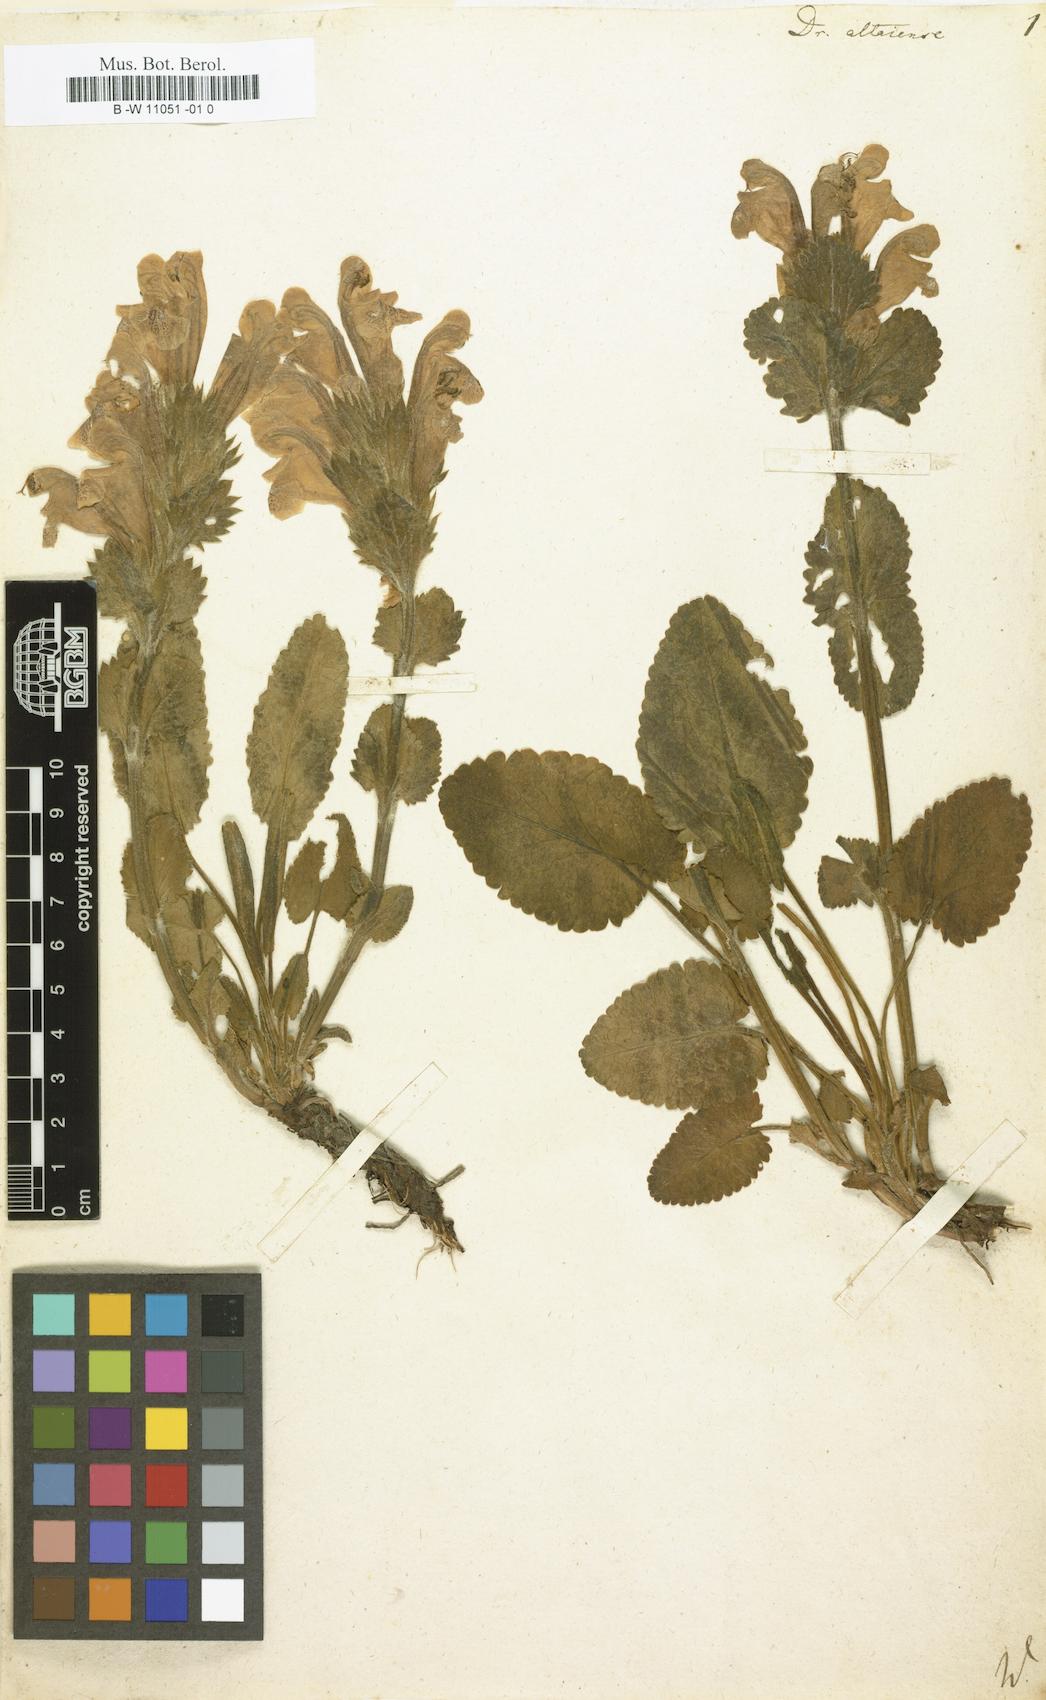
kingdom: Plantae
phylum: Tracheophyta
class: Magnoliopsida
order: Lamiales
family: Lamiaceae
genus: Dracocephalum
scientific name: Dracocephalum
